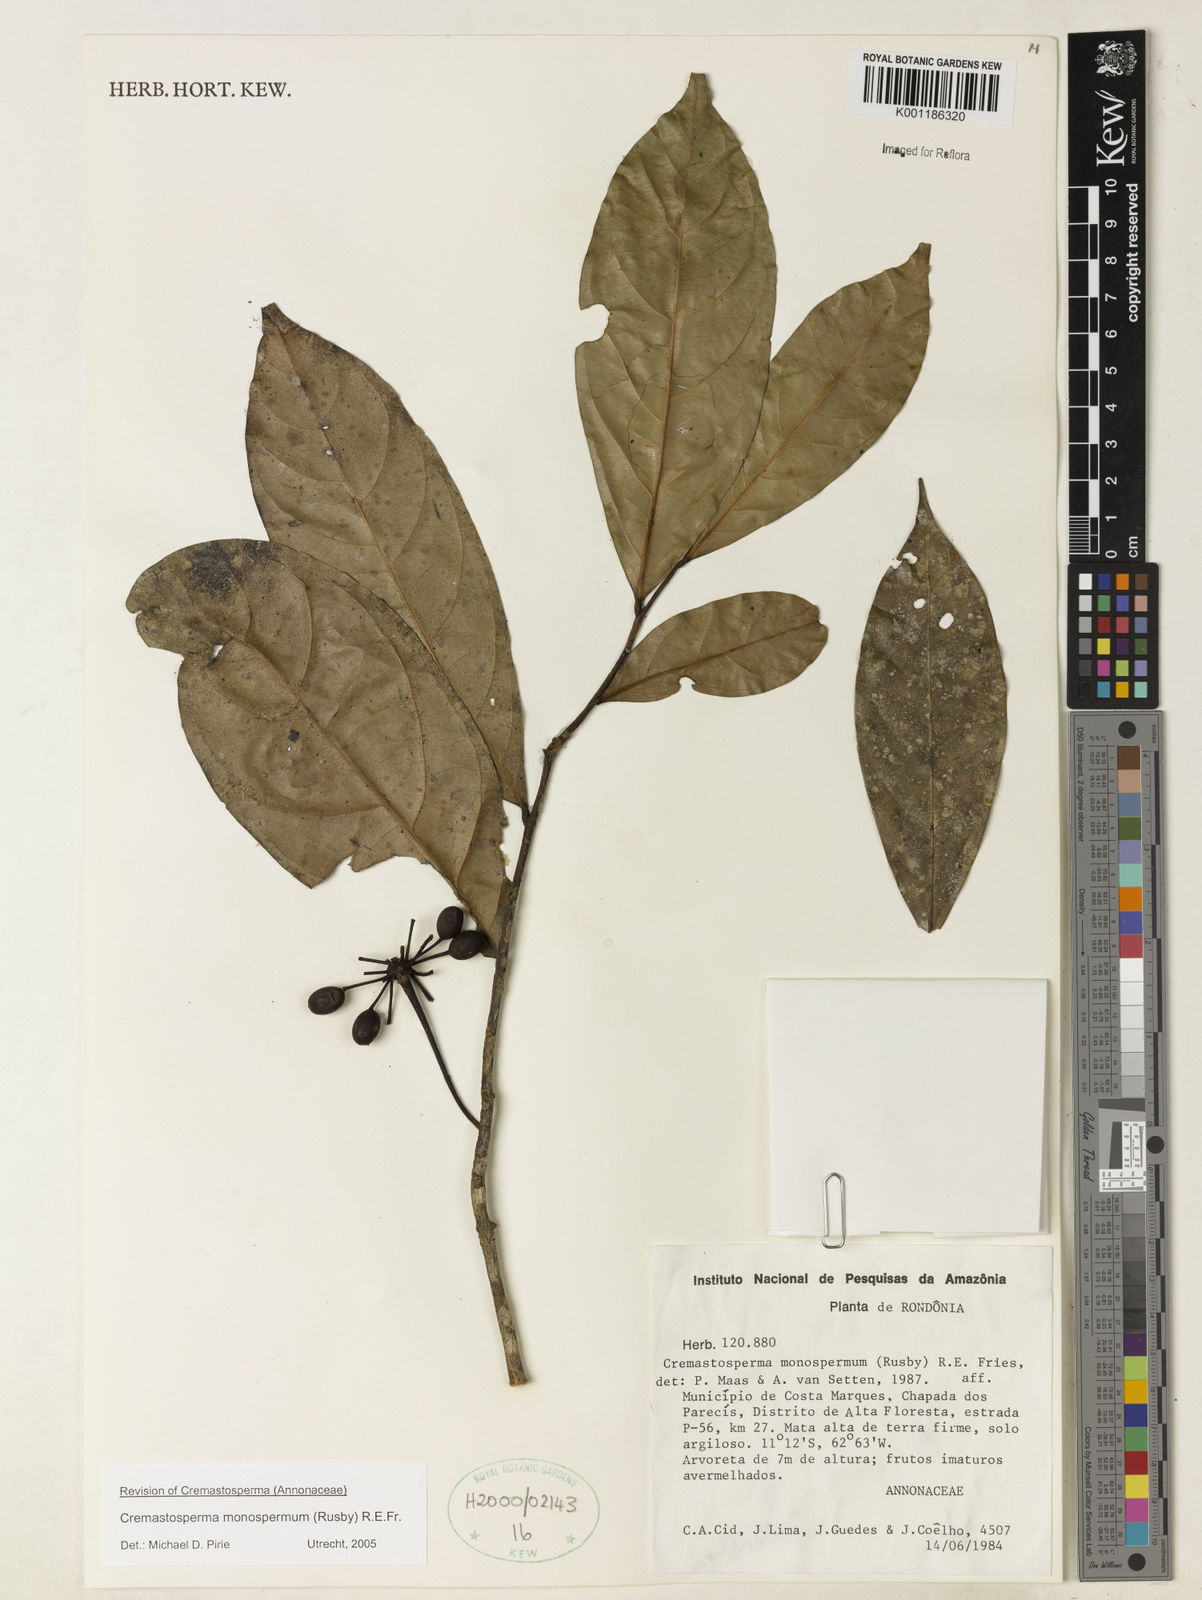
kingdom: Plantae
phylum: Tracheophyta
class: Magnoliopsida
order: Magnoliales
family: Annonaceae
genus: Cremastosperma
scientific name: Cremastosperma monospermum
